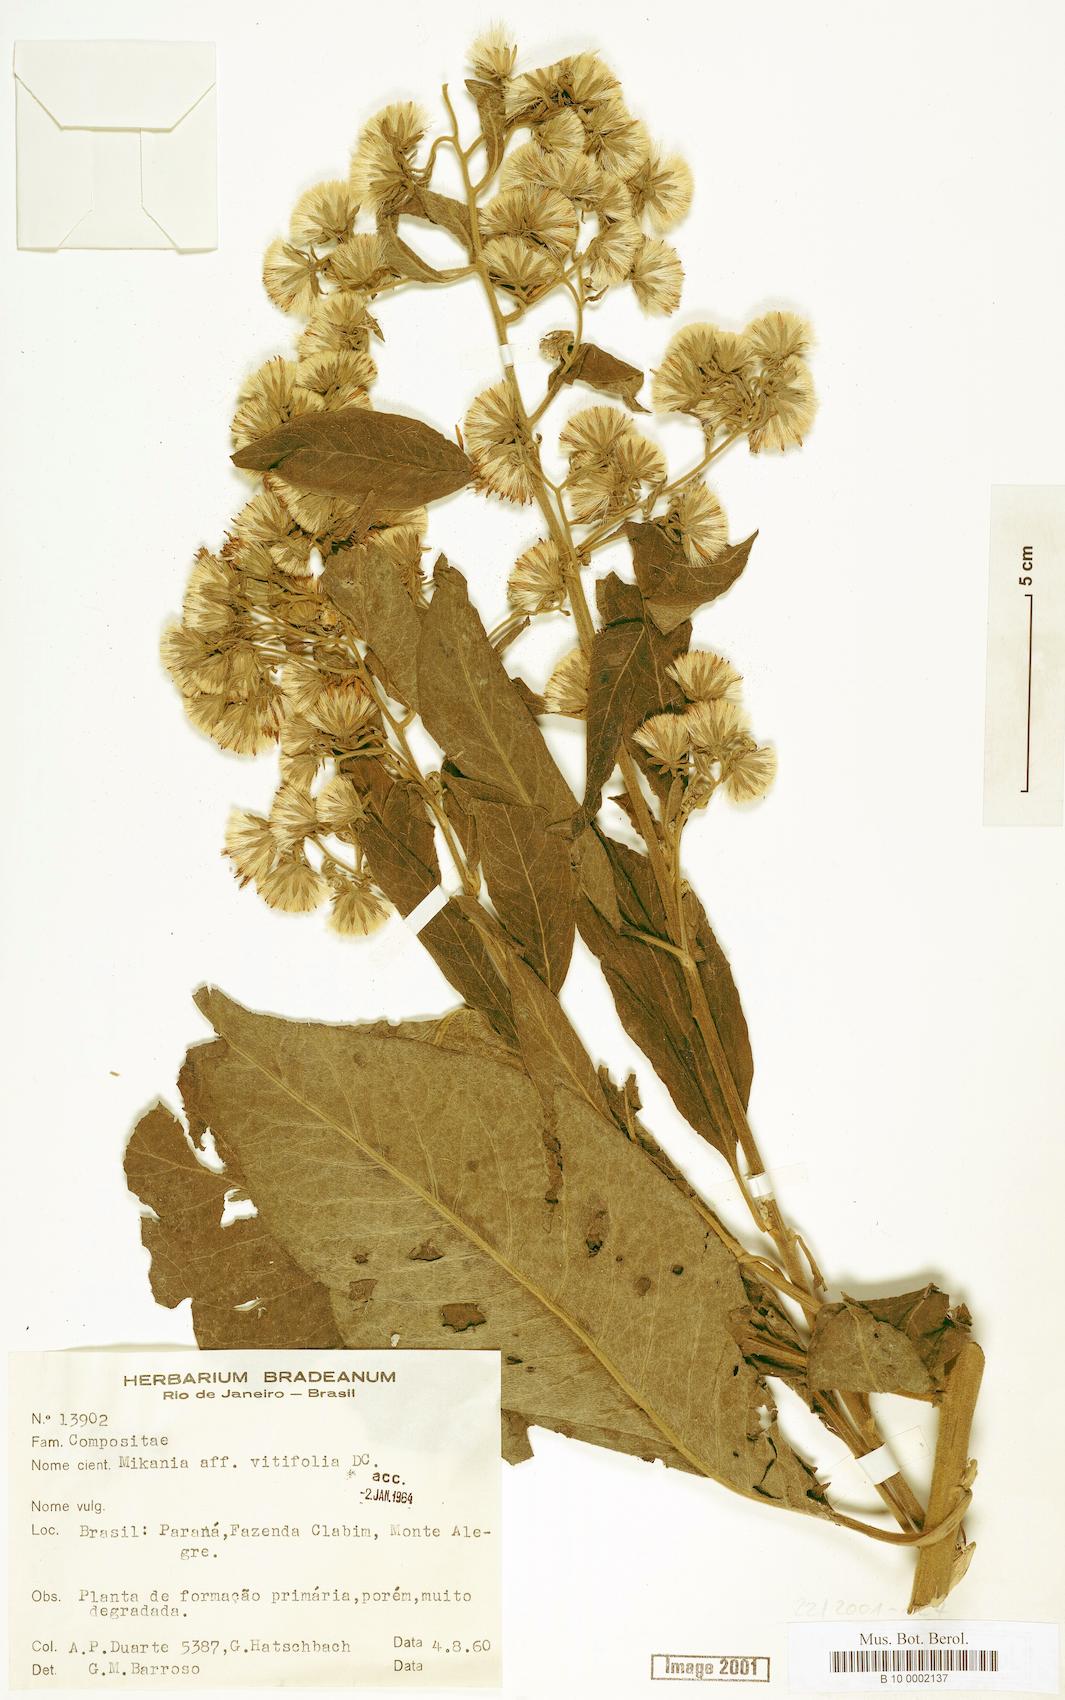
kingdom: Plantae
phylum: Tracheophyta
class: Magnoliopsida
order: Asterales
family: Asteraceae
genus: Mikania
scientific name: Mikania vitifolia
